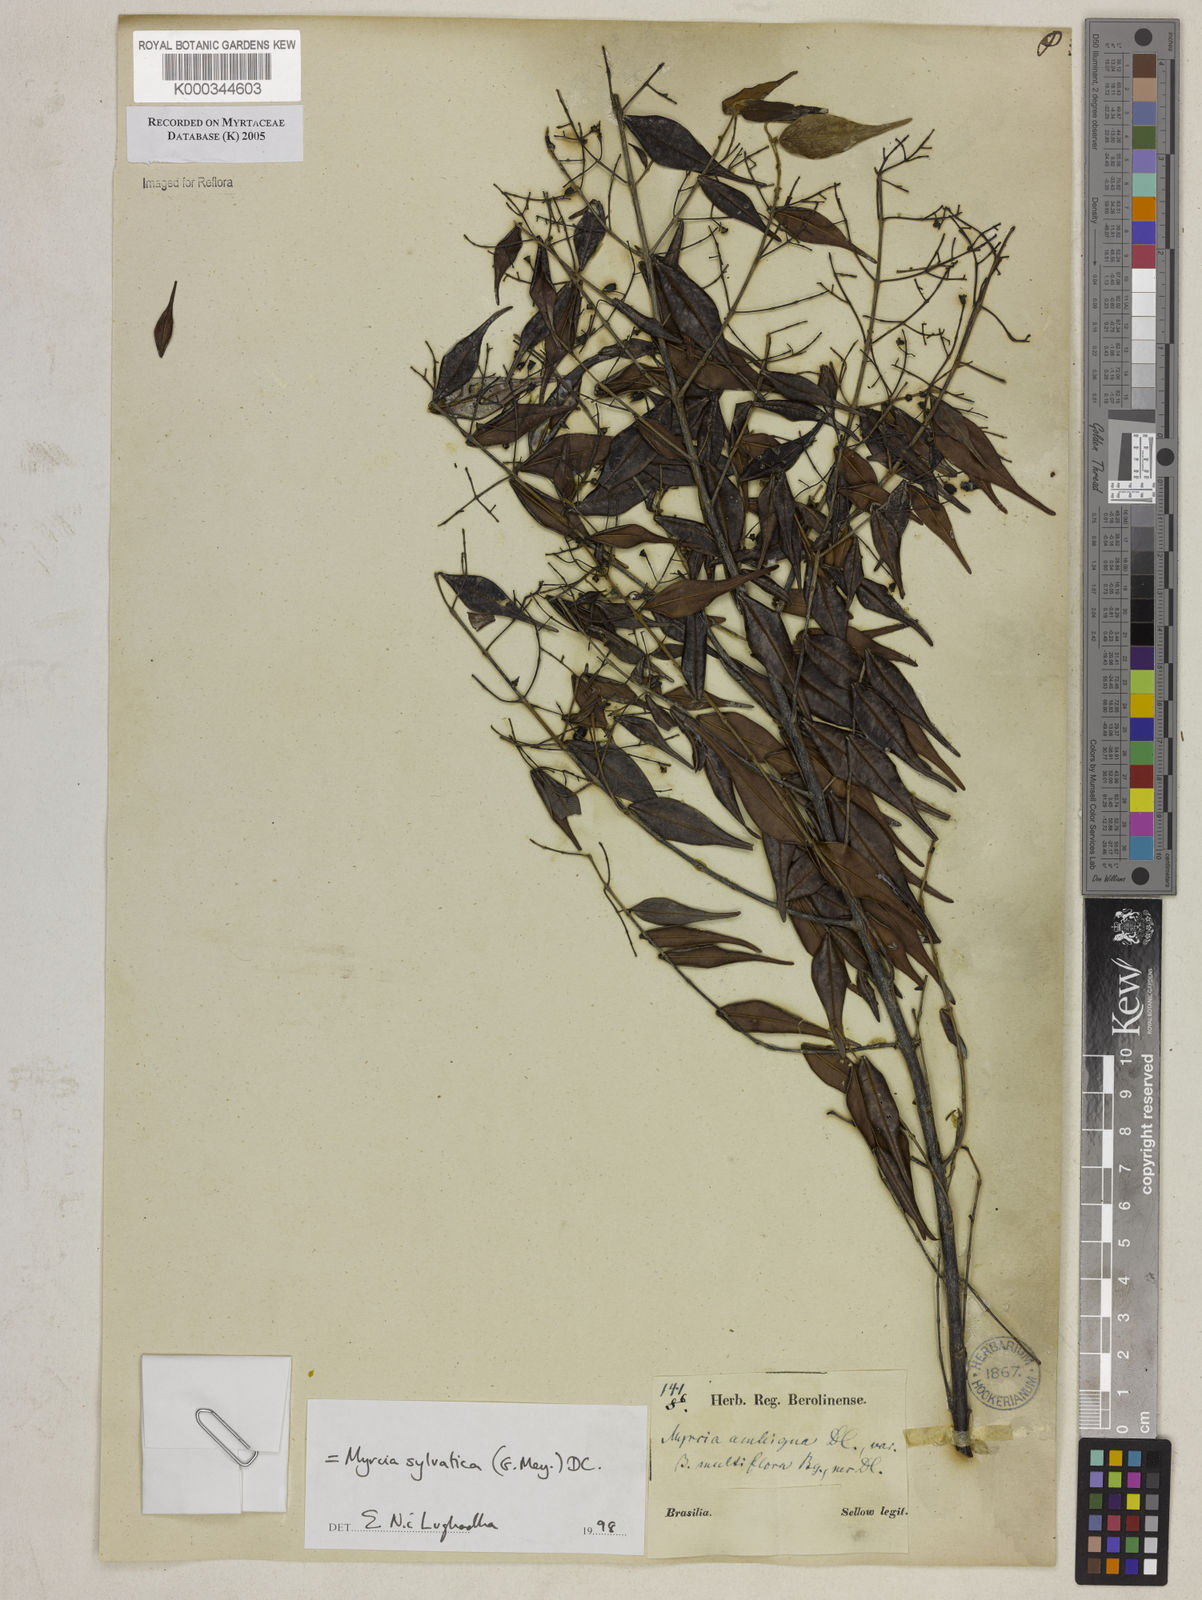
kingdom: Plantae
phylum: Tracheophyta
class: Magnoliopsida
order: Myrtales
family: Myrtaceae
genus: Myrcia
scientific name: Myrcia sylvatica
